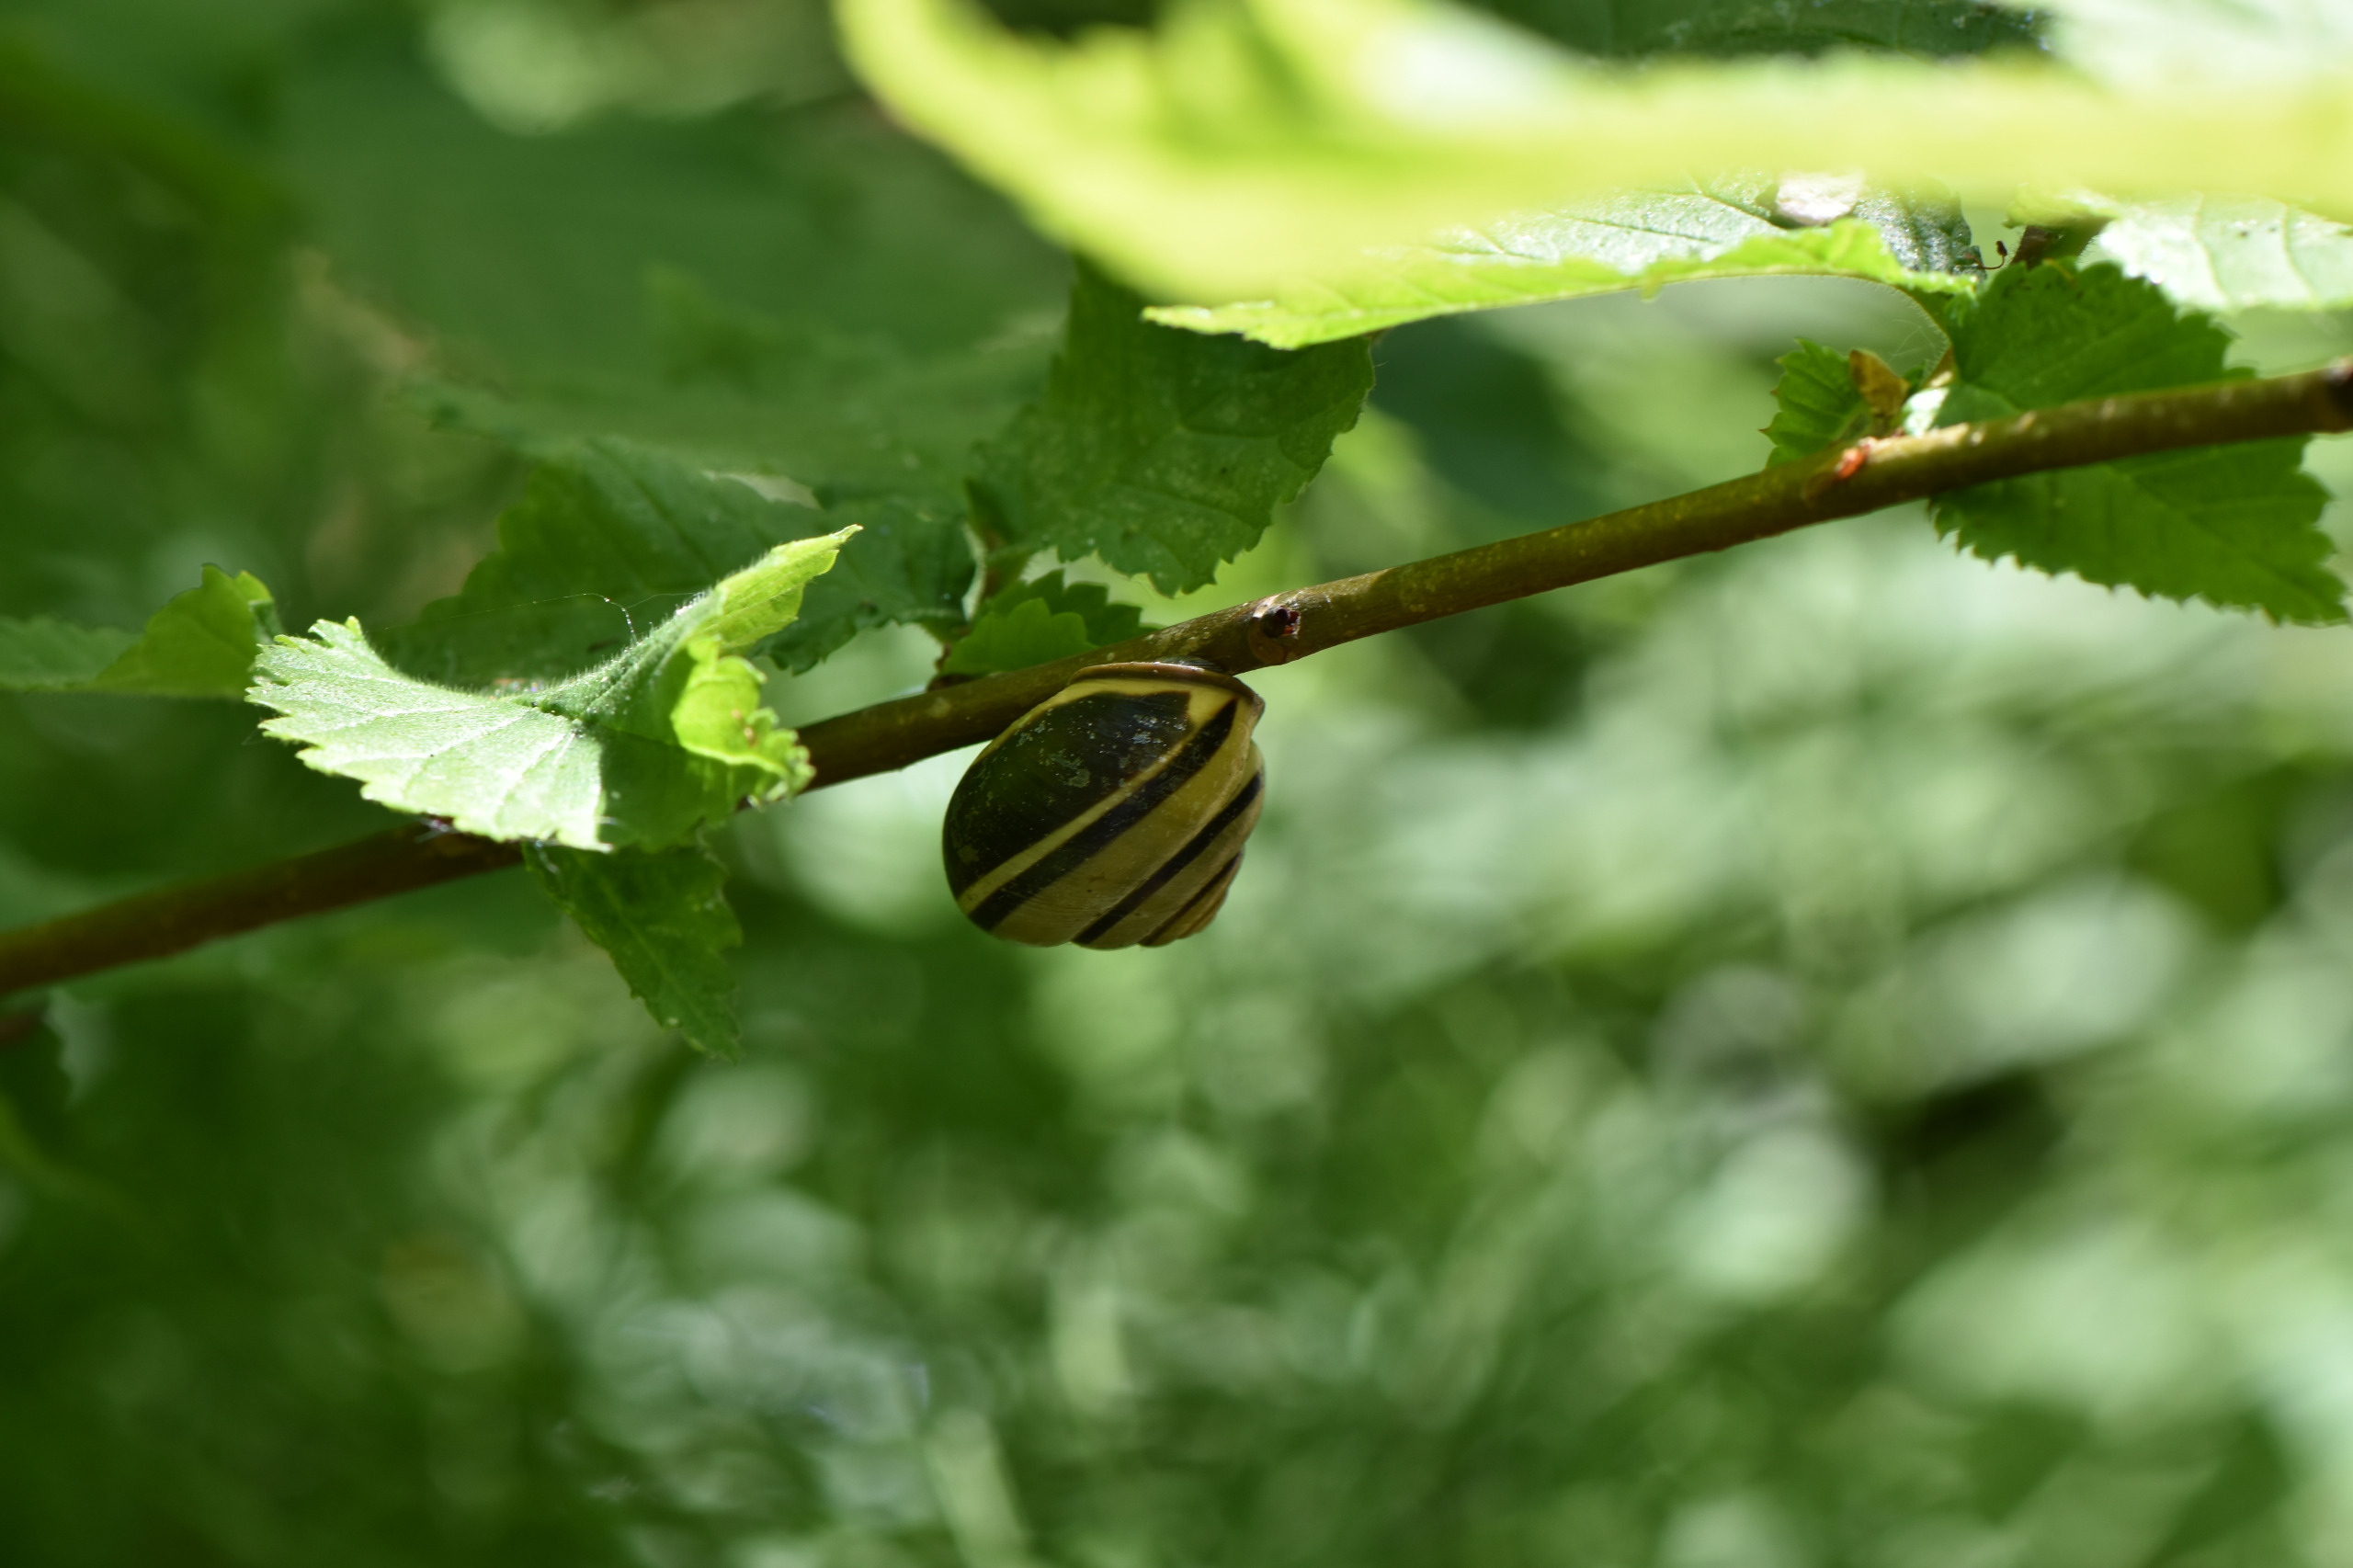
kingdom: Animalia
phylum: Mollusca
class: Gastropoda
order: Stylommatophora
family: Helicidae
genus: Cepaea
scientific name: Cepaea nemoralis
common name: Lundsnegl
